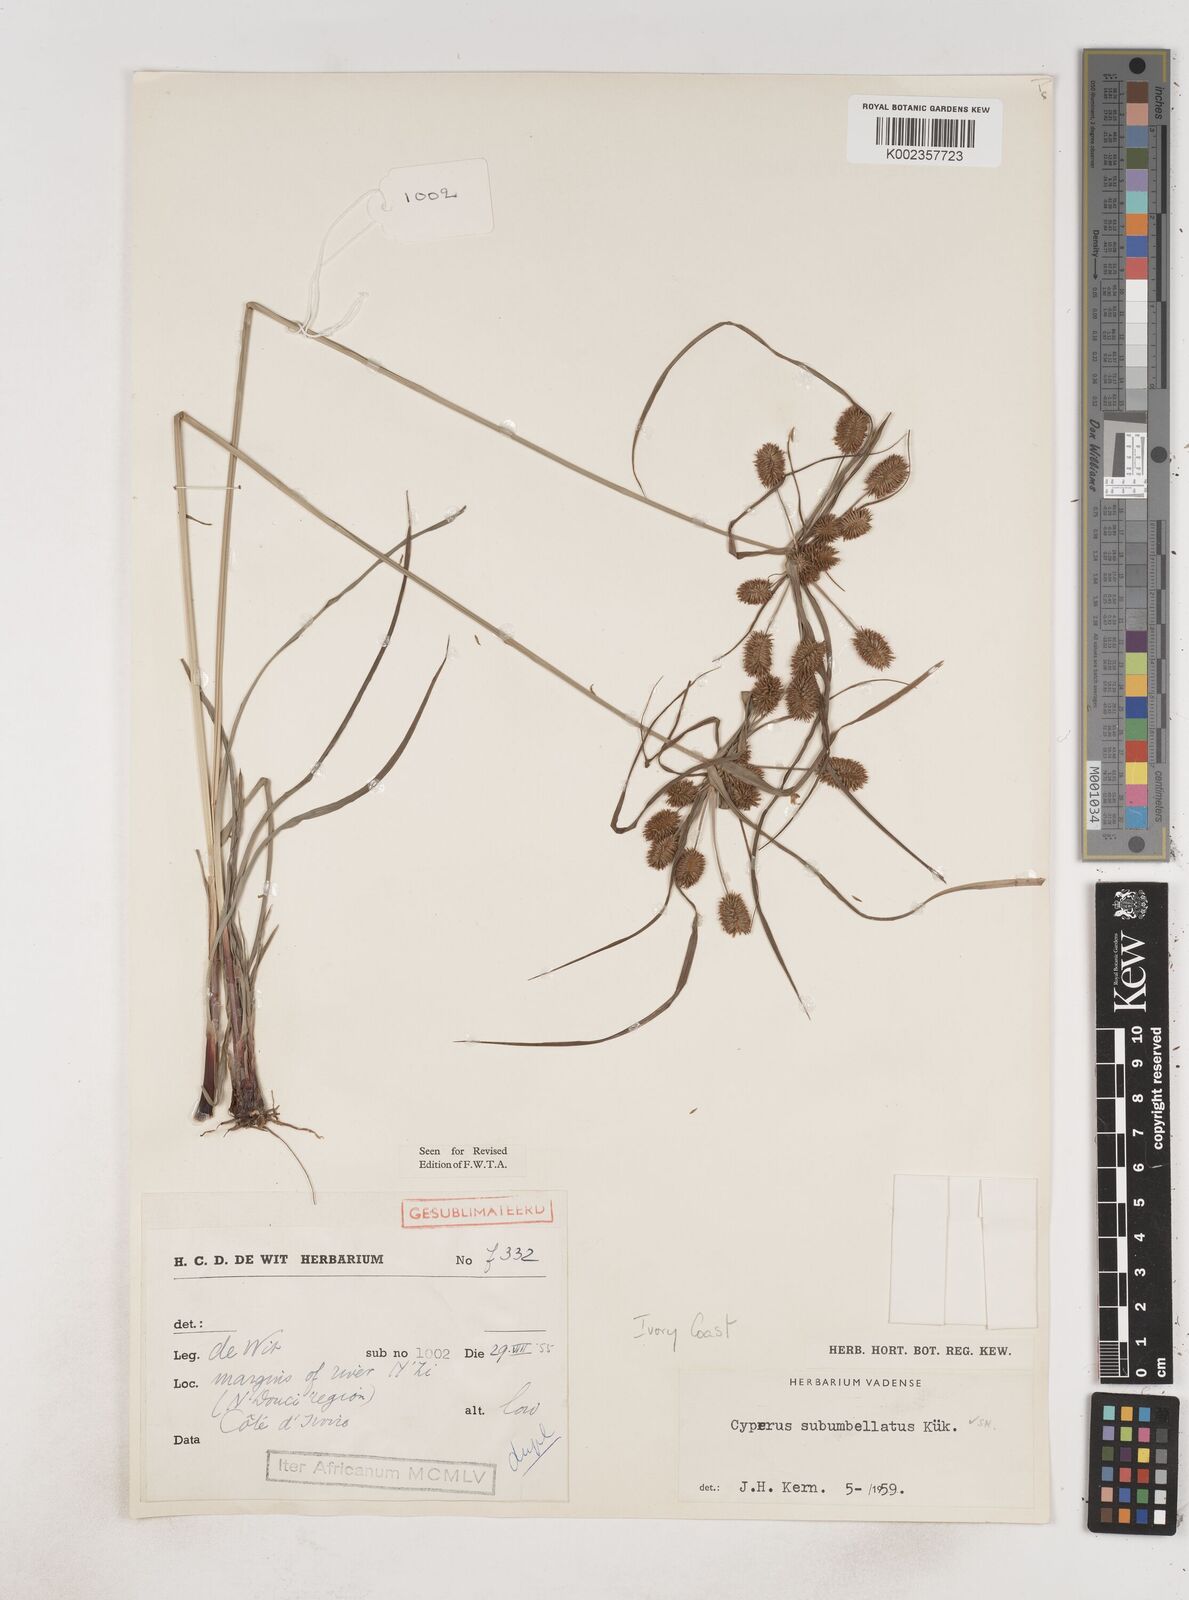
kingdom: Plantae
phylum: Tracheophyta
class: Liliopsida
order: Poales
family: Cyperaceae
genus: Cyperus
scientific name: Cyperus sublimis
